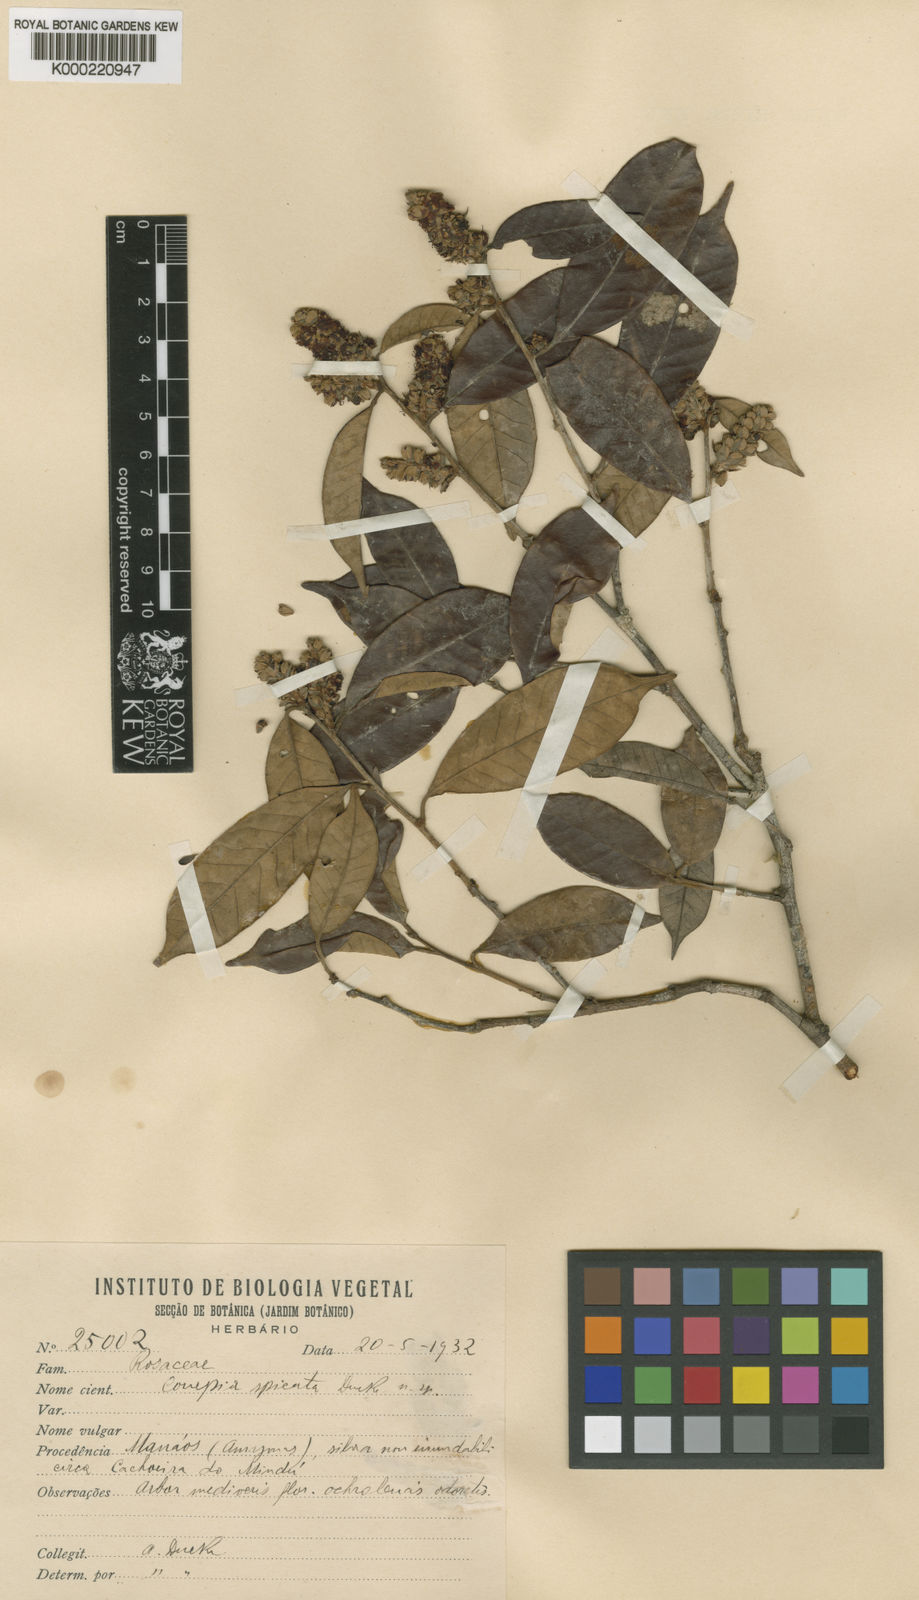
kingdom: Plantae
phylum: Tracheophyta
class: Magnoliopsida
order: Malpighiales
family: Chrysobalanaceae
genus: Couepia
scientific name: Couepia spicata
